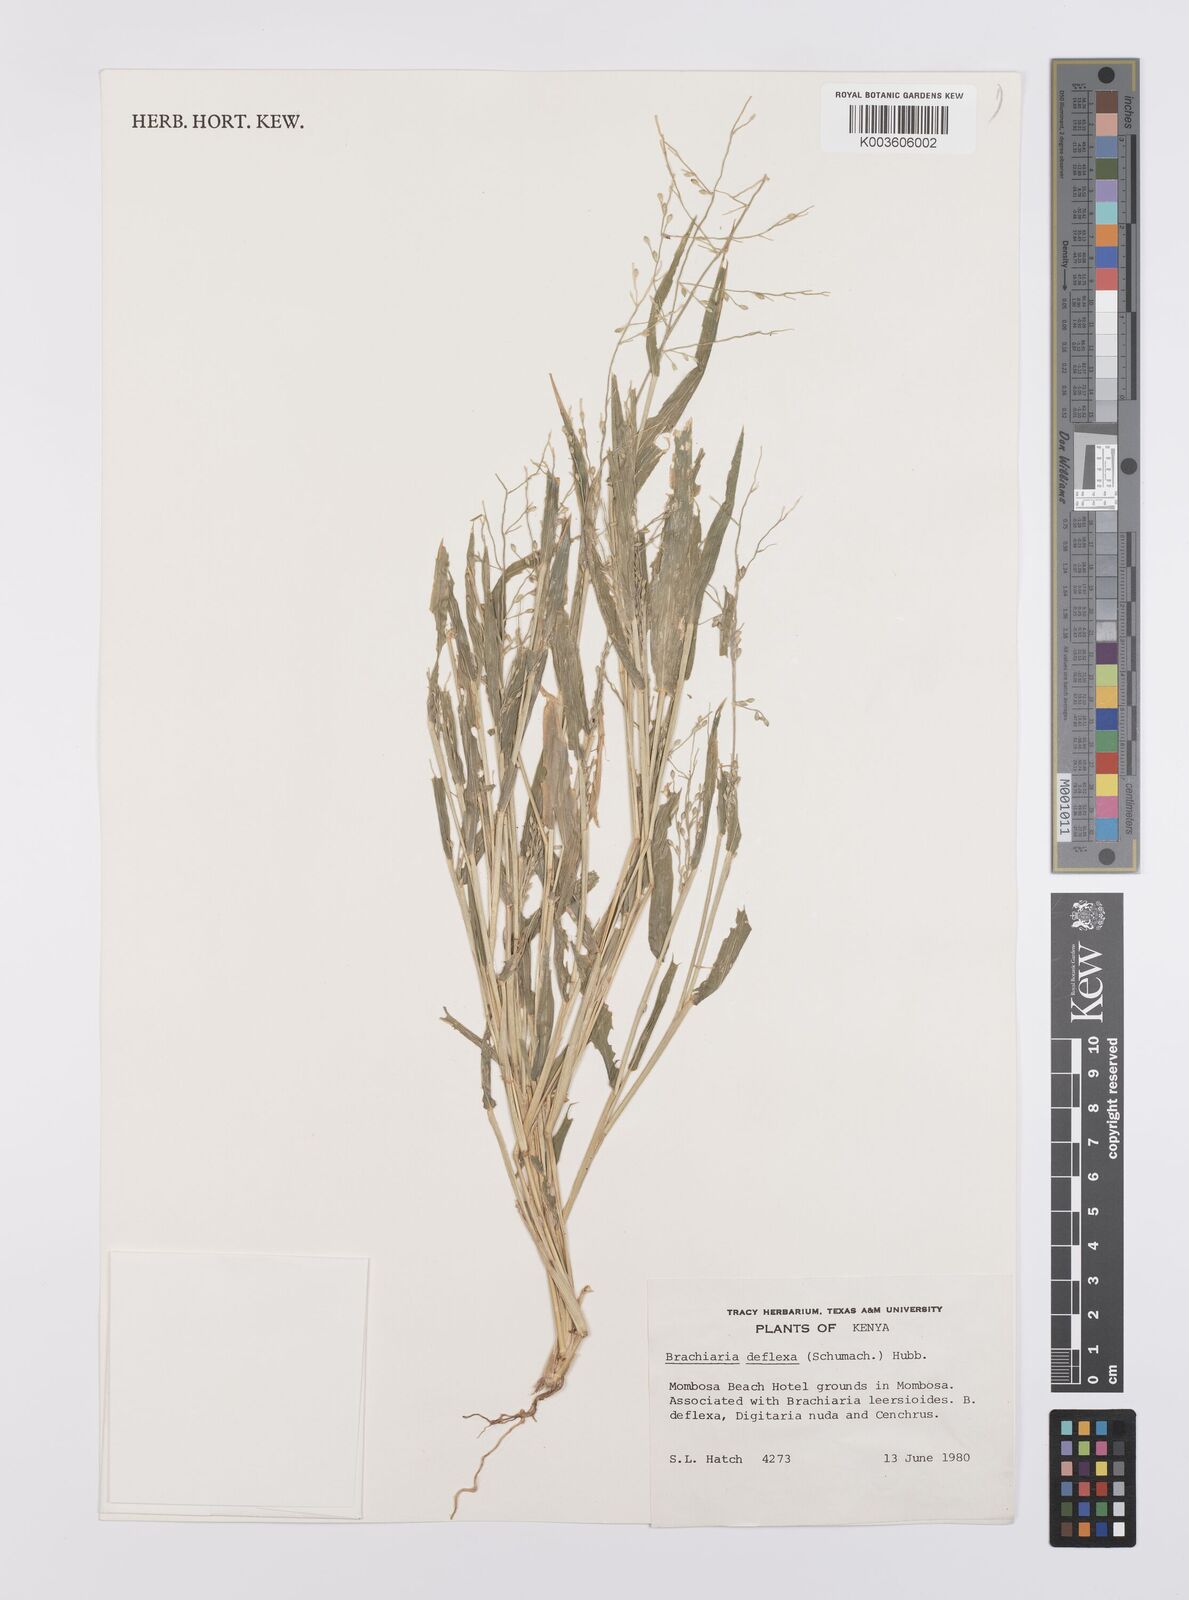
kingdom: Plantae
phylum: Tracheophyta
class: Liliopsida
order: Poales
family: Poaceae
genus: Urochloa
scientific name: Urochloa deflexa
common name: Guinea millet
